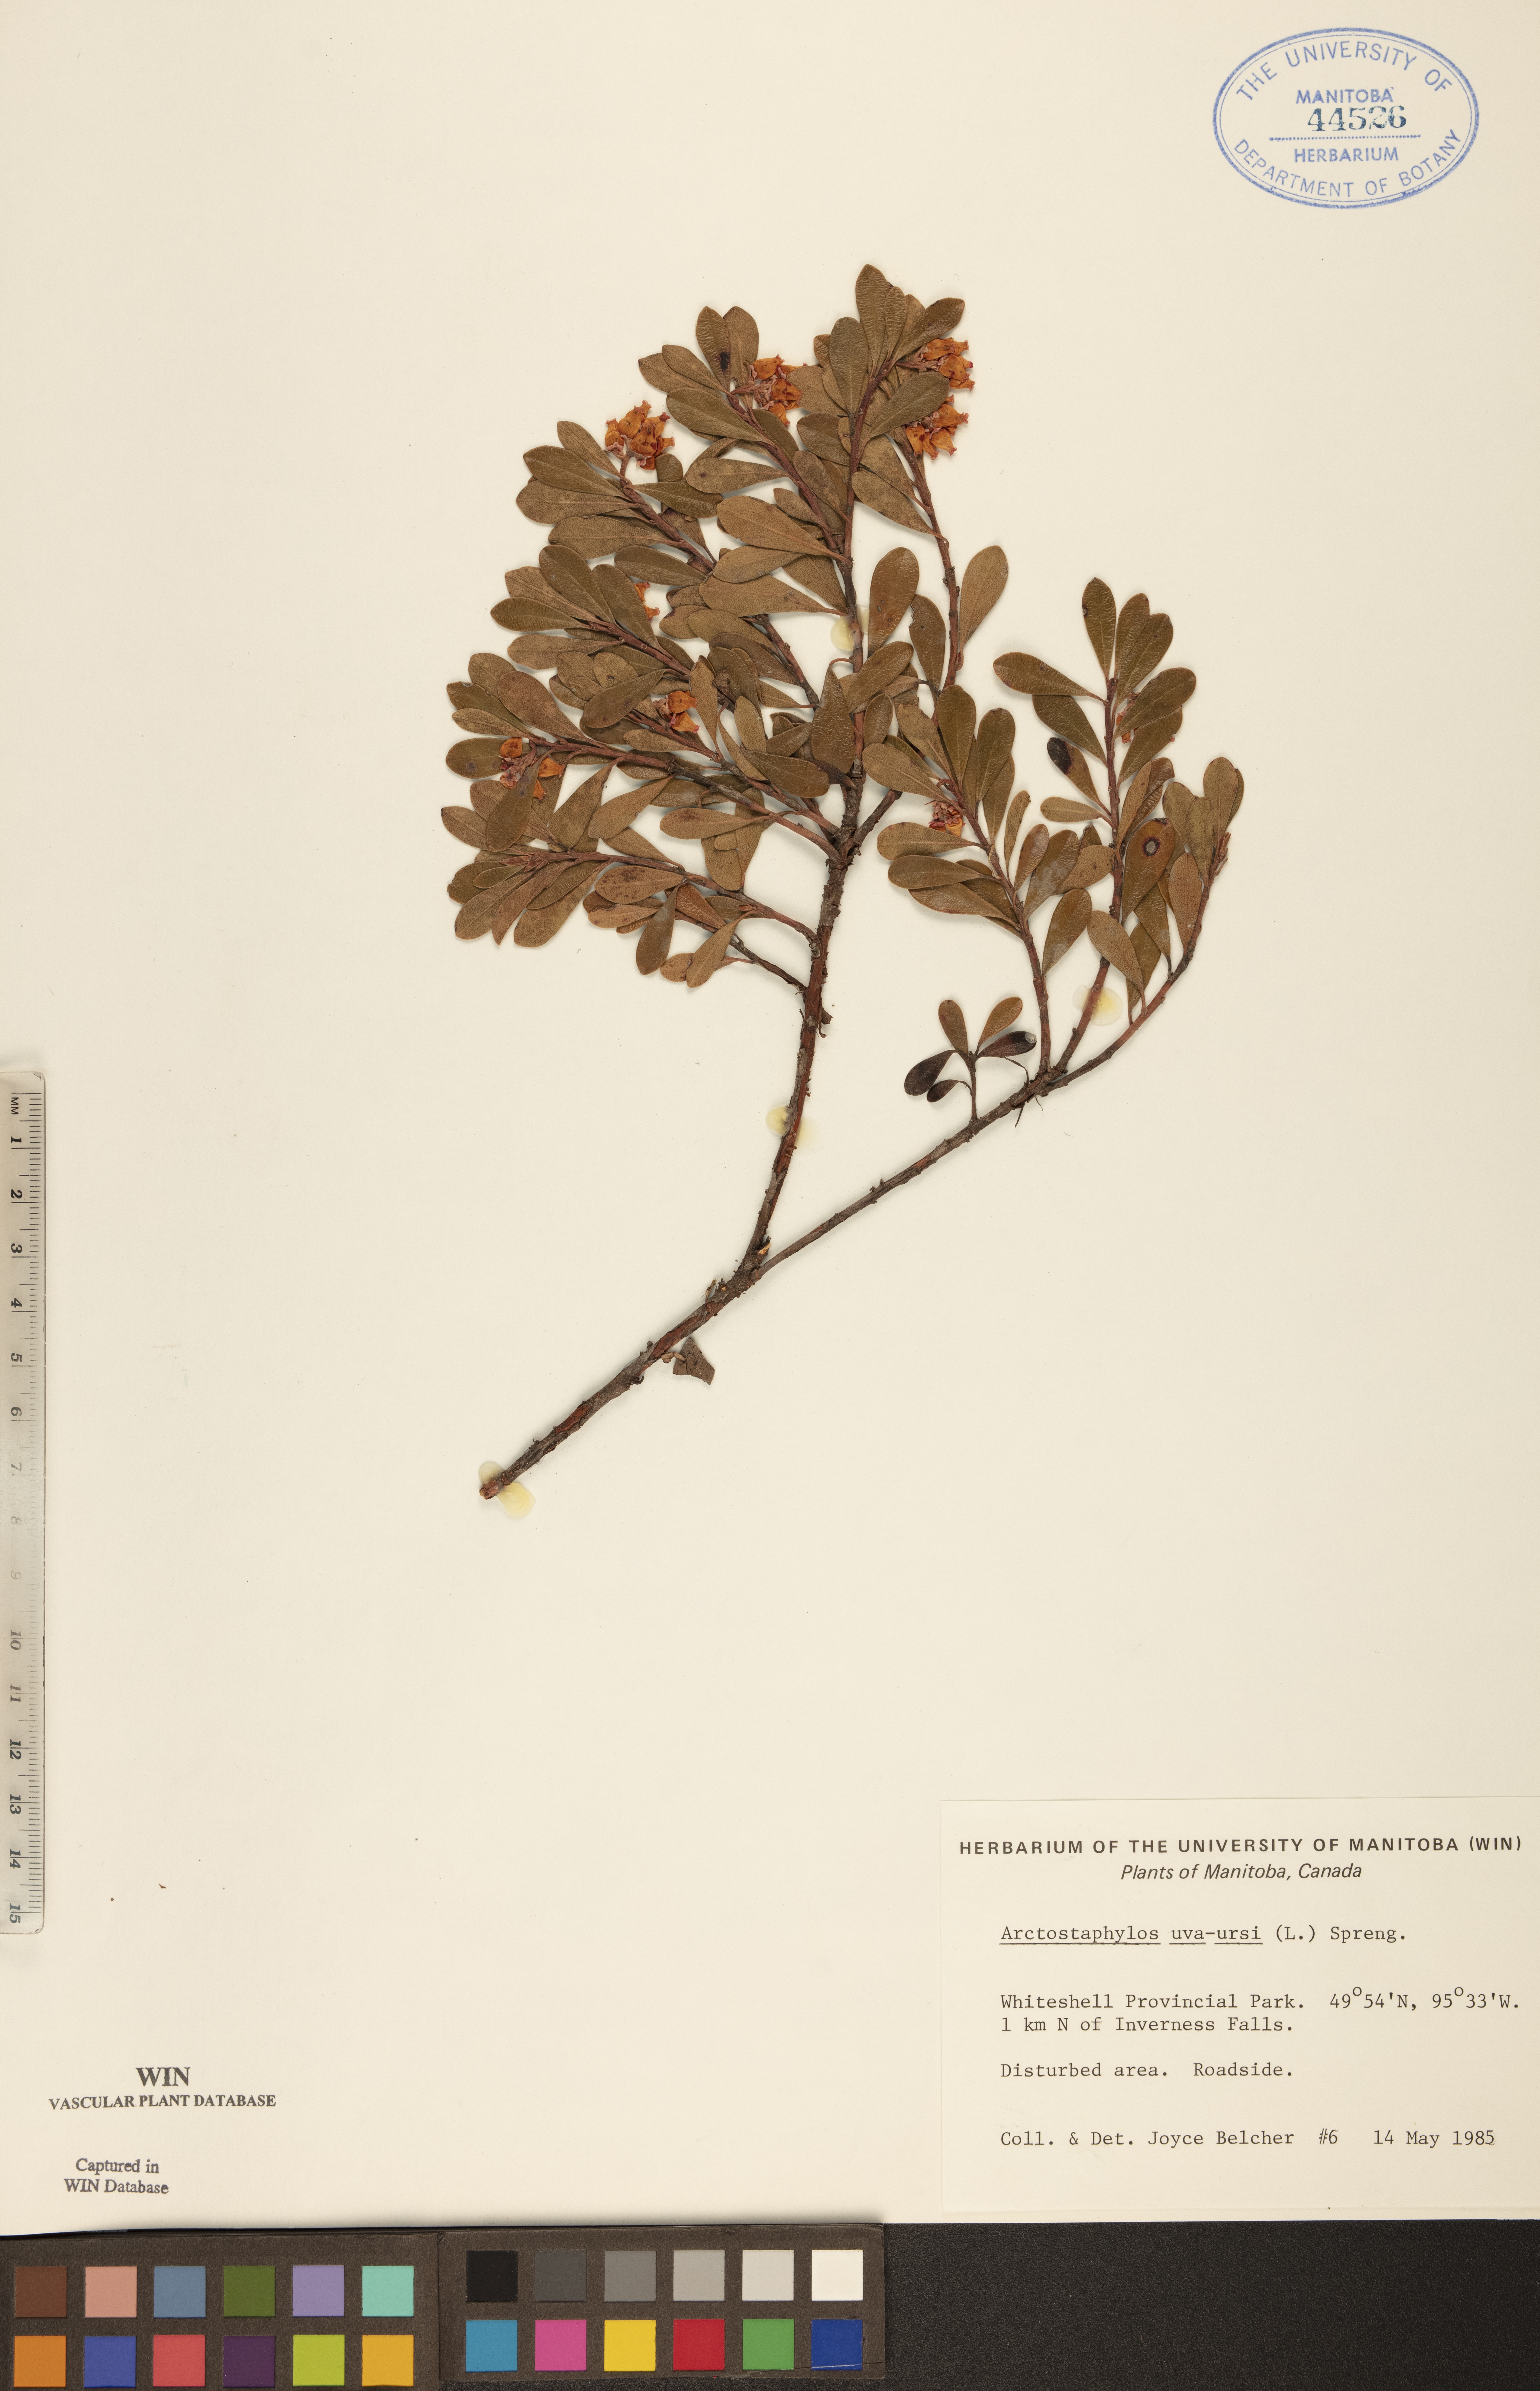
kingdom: Plantae
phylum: Tracheophyta
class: Magnoliopsida
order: Ericales
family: Ericaceae
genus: Arctostaphylos
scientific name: Arctostaphylos uva-ursi
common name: Bearberry
